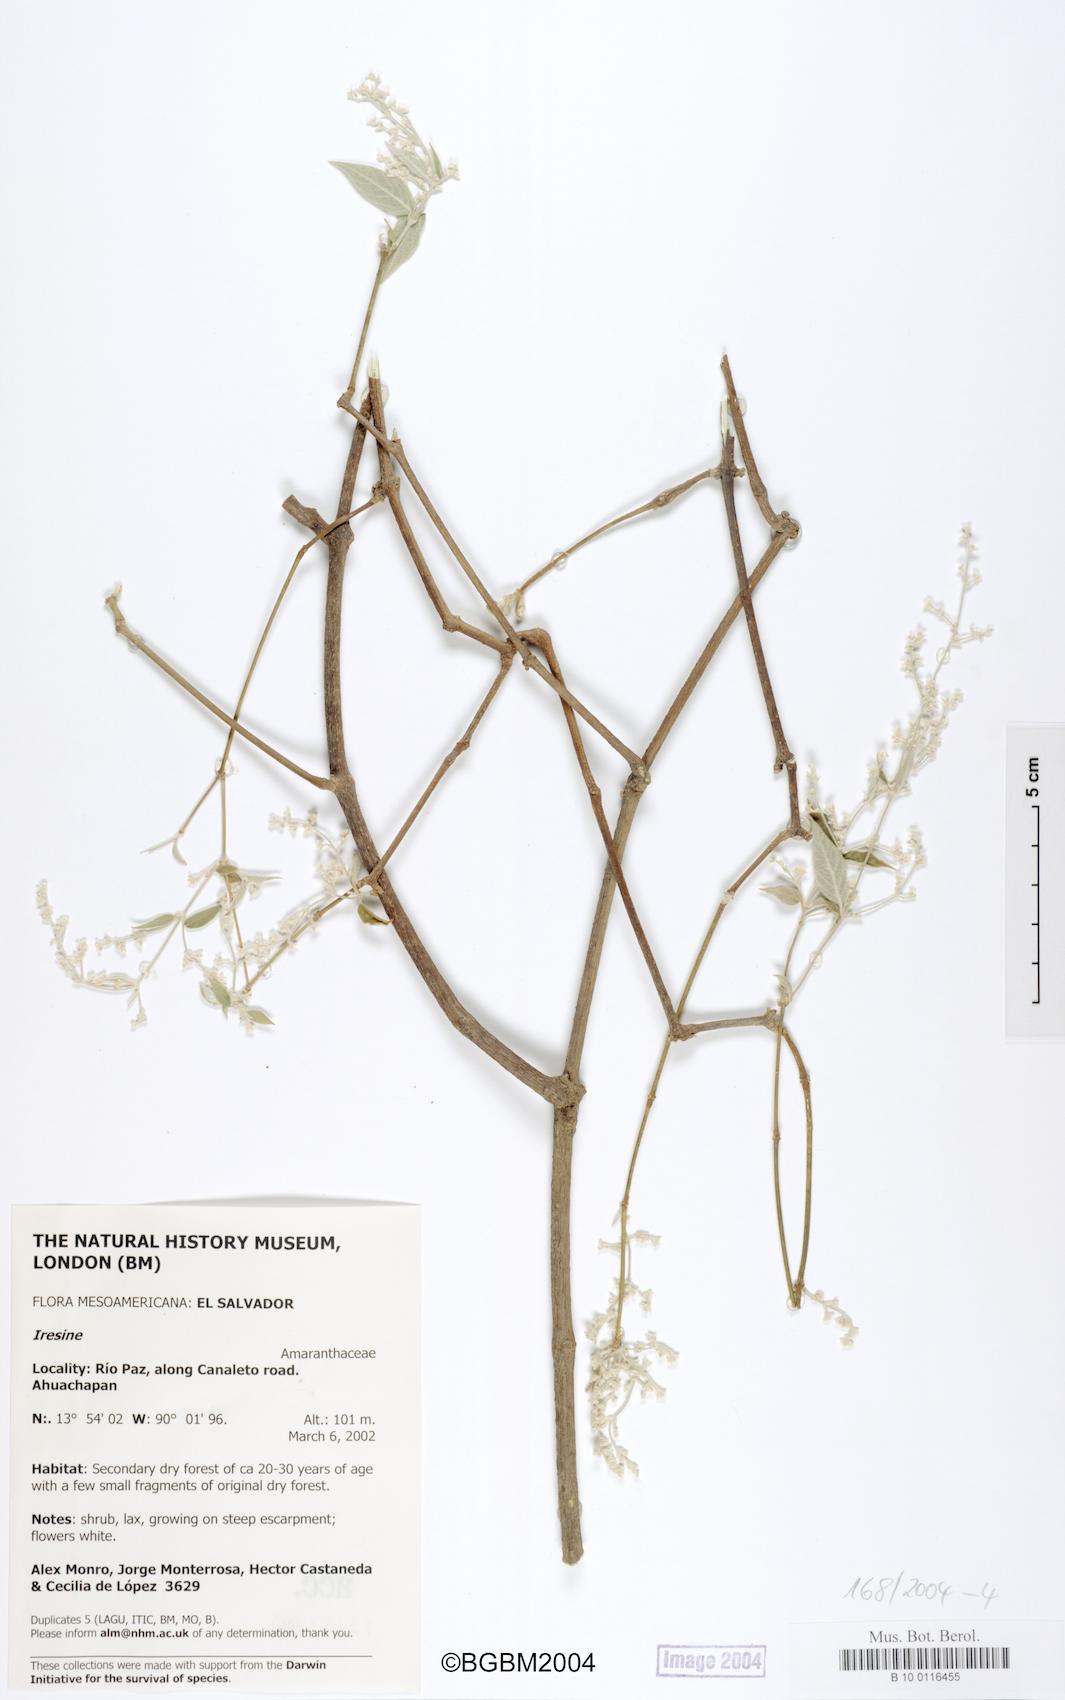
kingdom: Plantae
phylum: Tracheophyta
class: Magnoliopsida
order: Caryophyllales
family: Amaranthaceae
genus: Iresine
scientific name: Iresine
